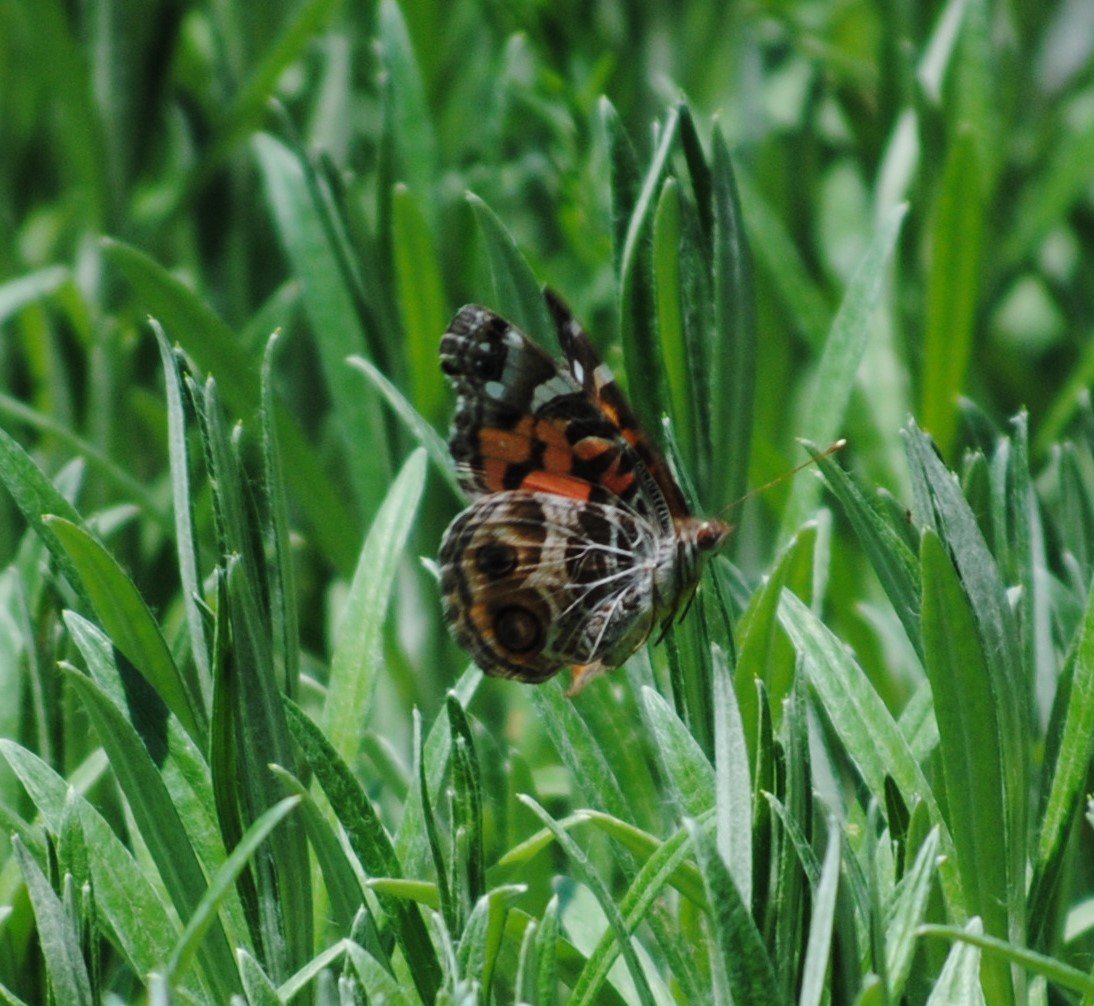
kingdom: Animalia
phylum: Arthropoda
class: Insecta
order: Lepidoptera
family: Nymphalidae
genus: Vanessa
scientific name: Vanessa virginiensis
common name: American Lady
